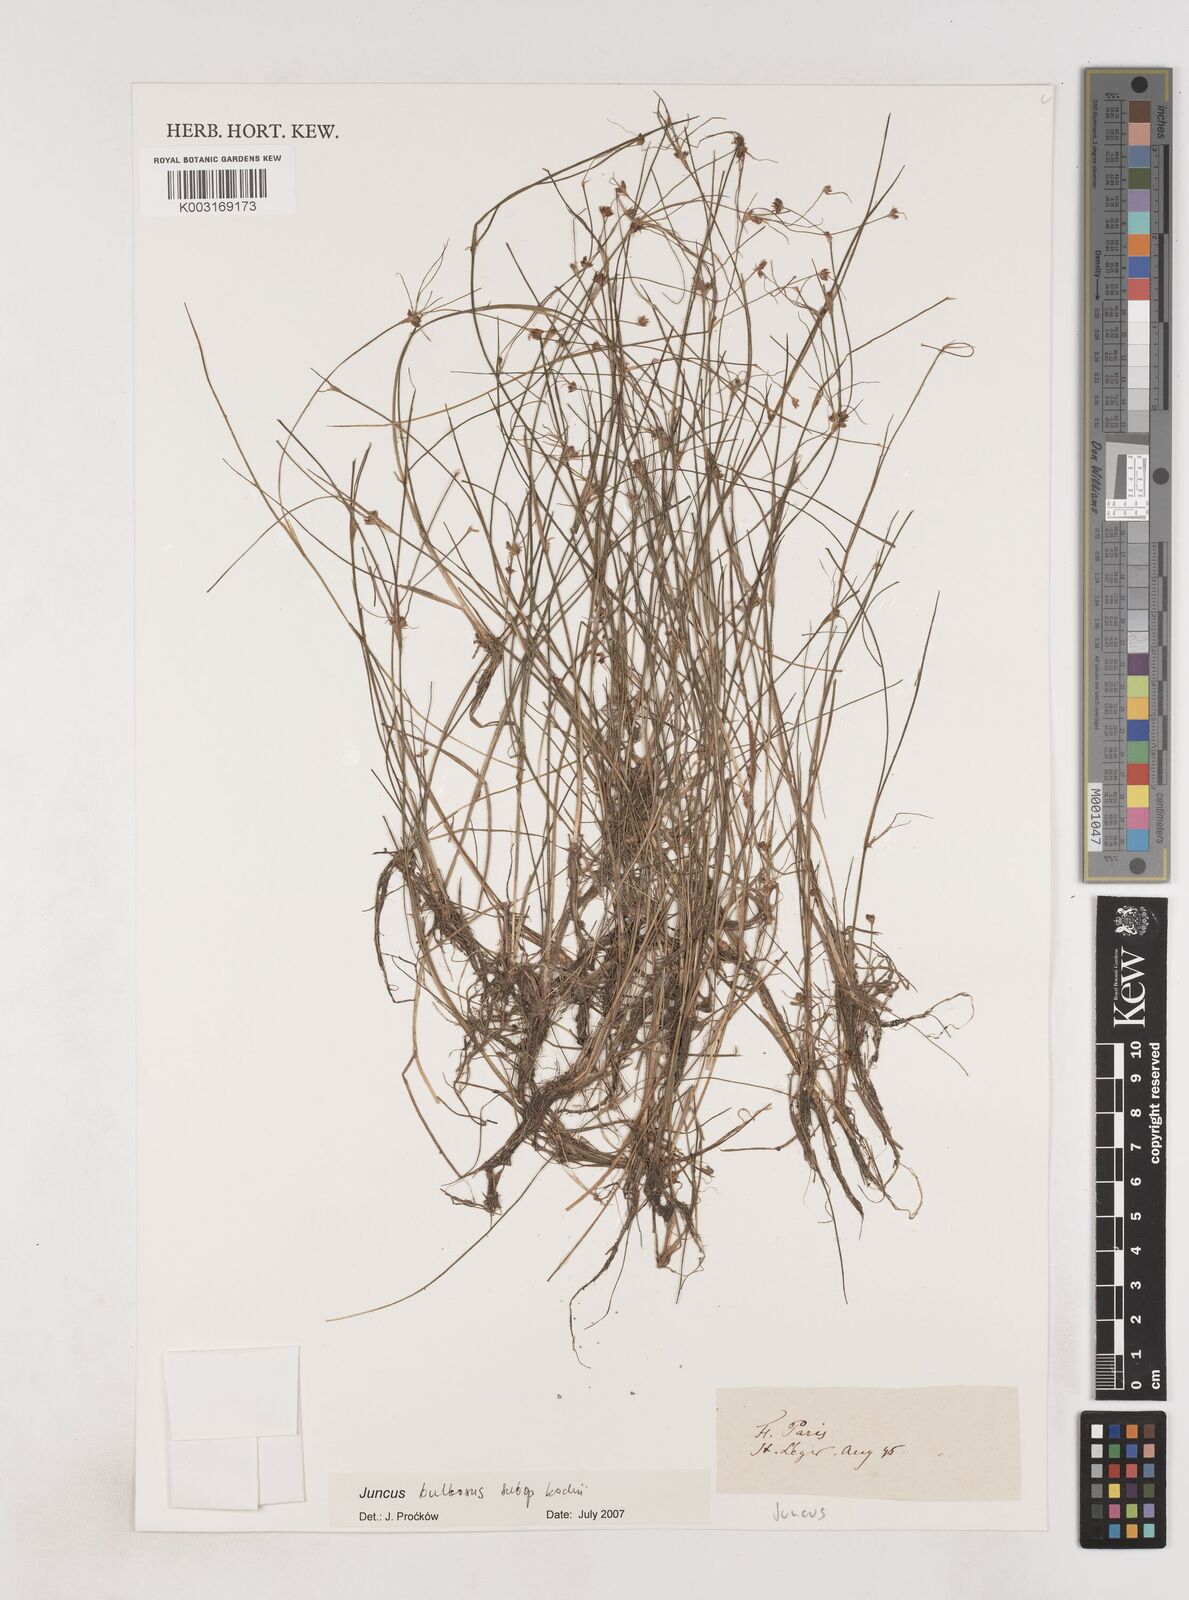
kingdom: Plantae
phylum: Tracheophyta
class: Liliopsida
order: Poales
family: Juncaceae
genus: Juncus
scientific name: Juncus bulbosus
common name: Bulbous rush
